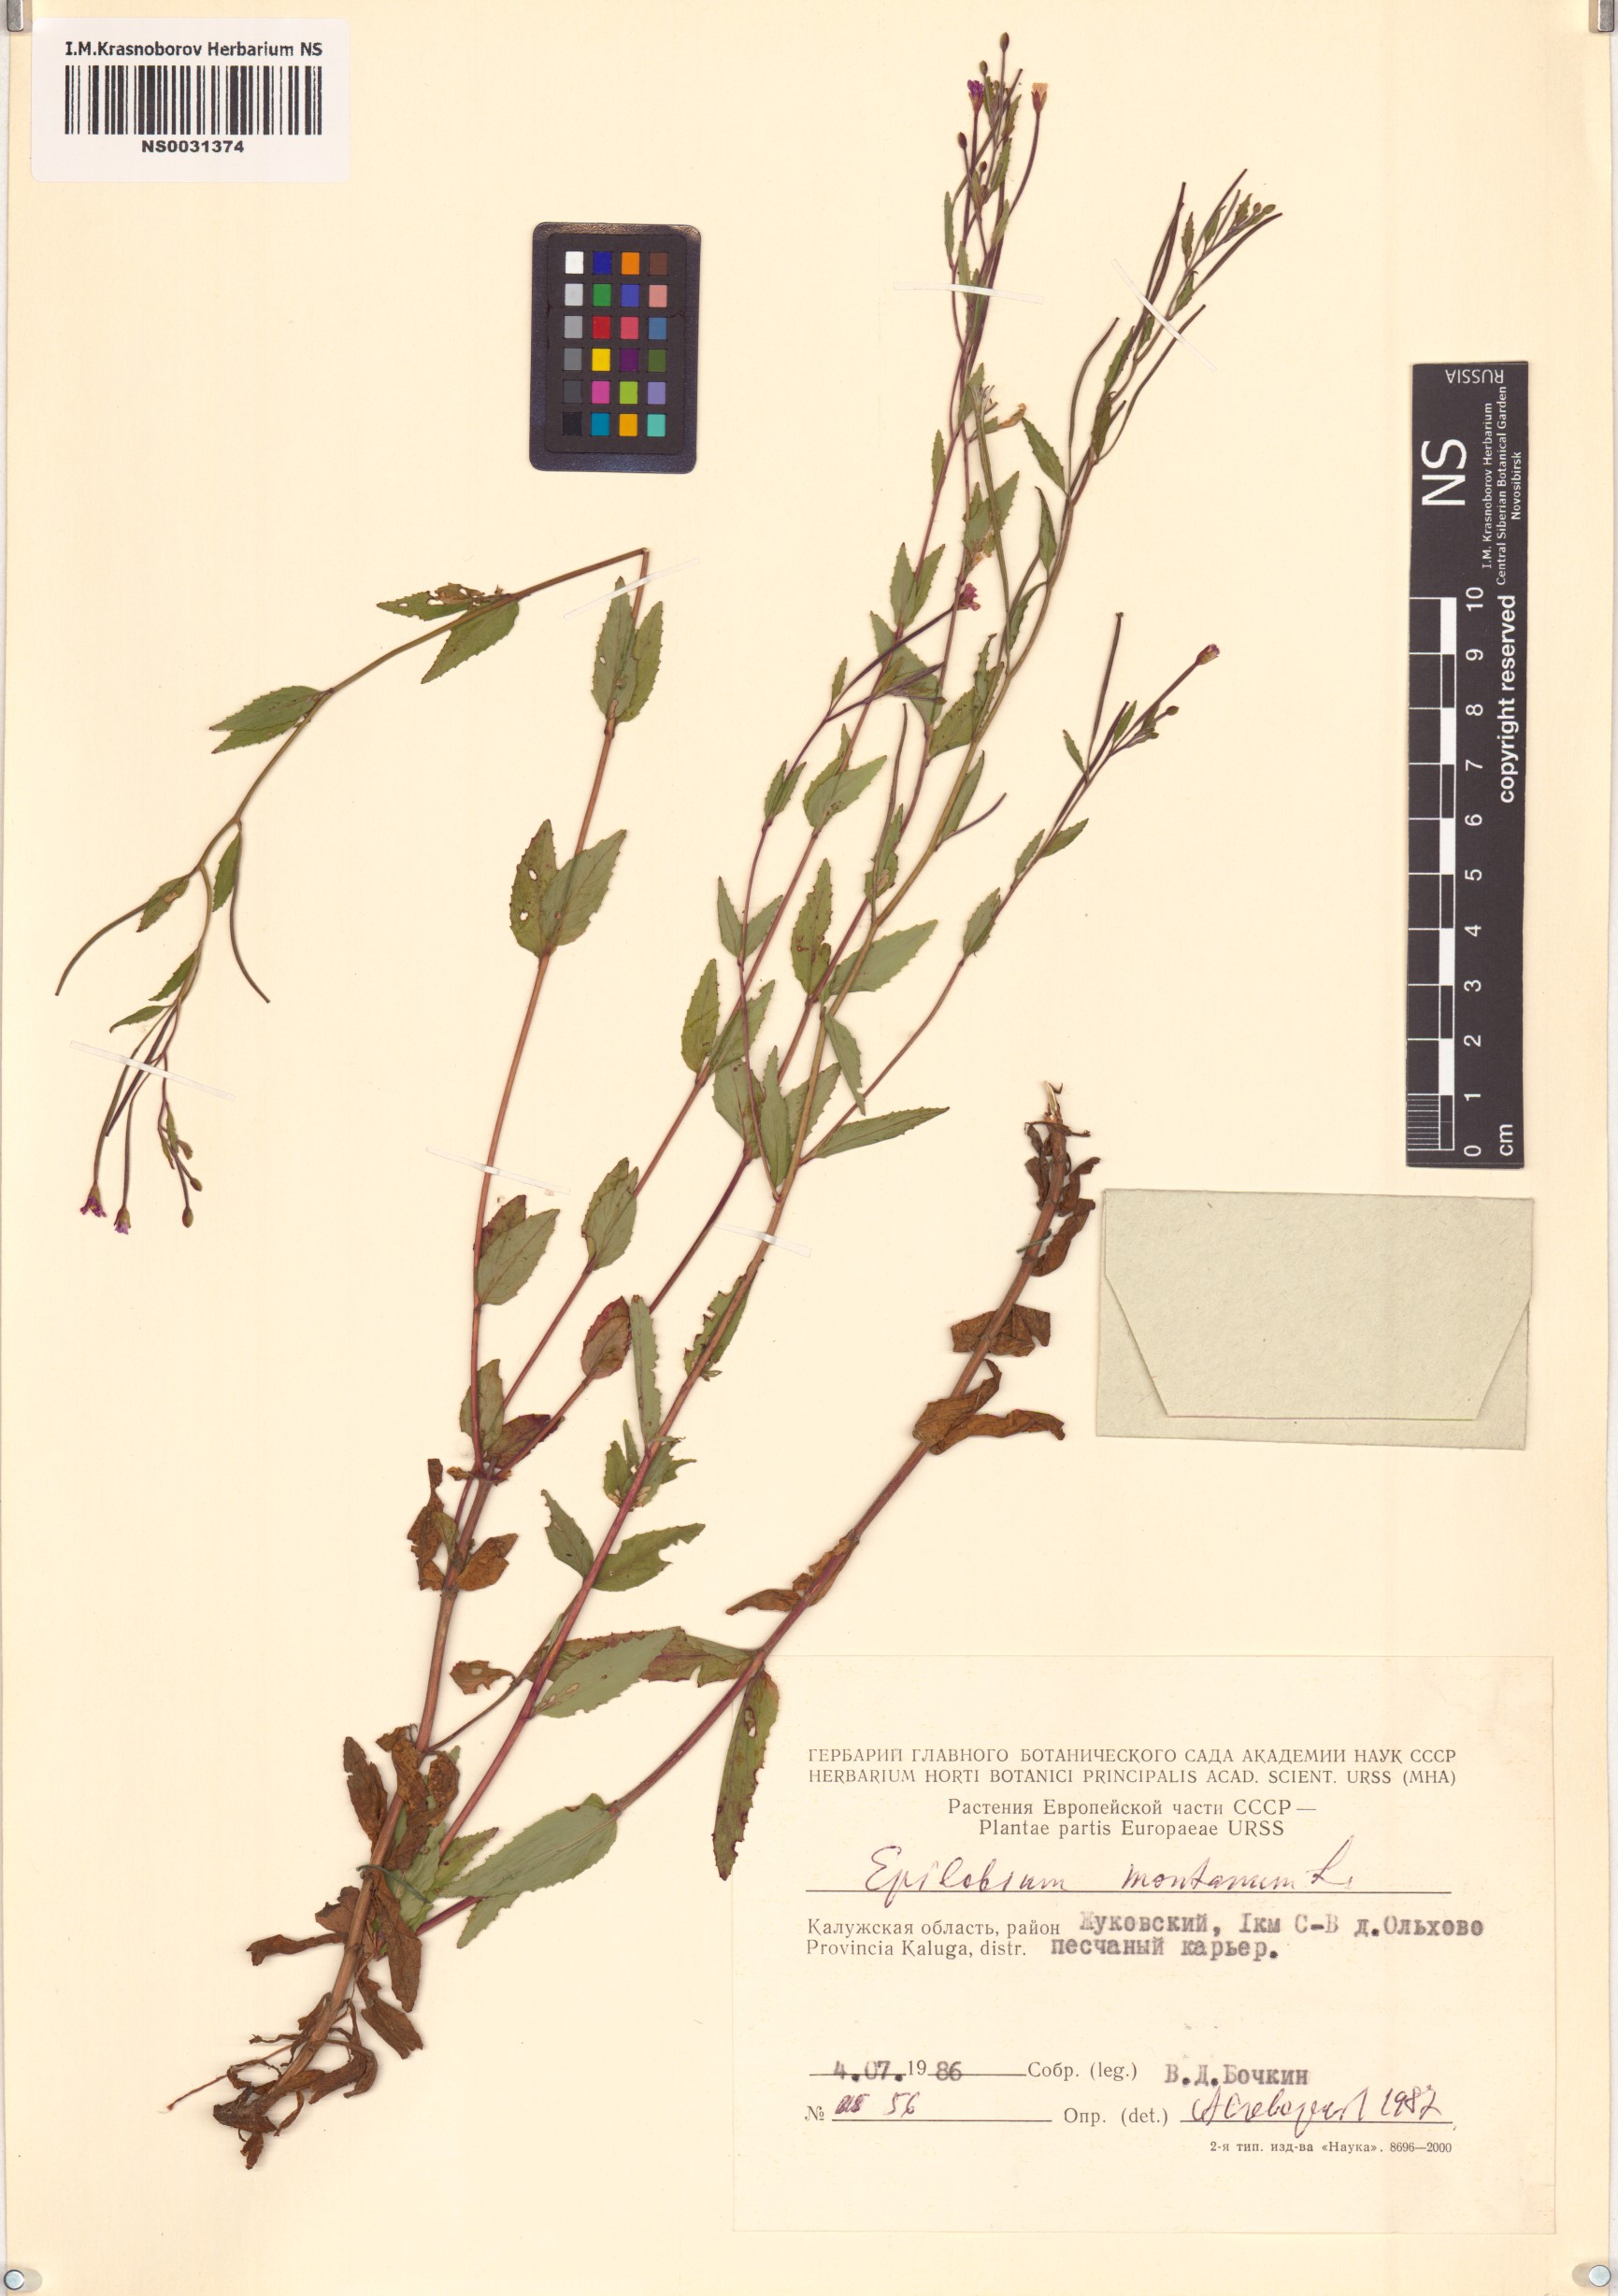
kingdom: Plantae
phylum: Tracheophyta
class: Magnoliopsida
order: Myrtales
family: Onagraceae
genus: Epilobium
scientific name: Epilobium montanum
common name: Broad-leaved willowherb
